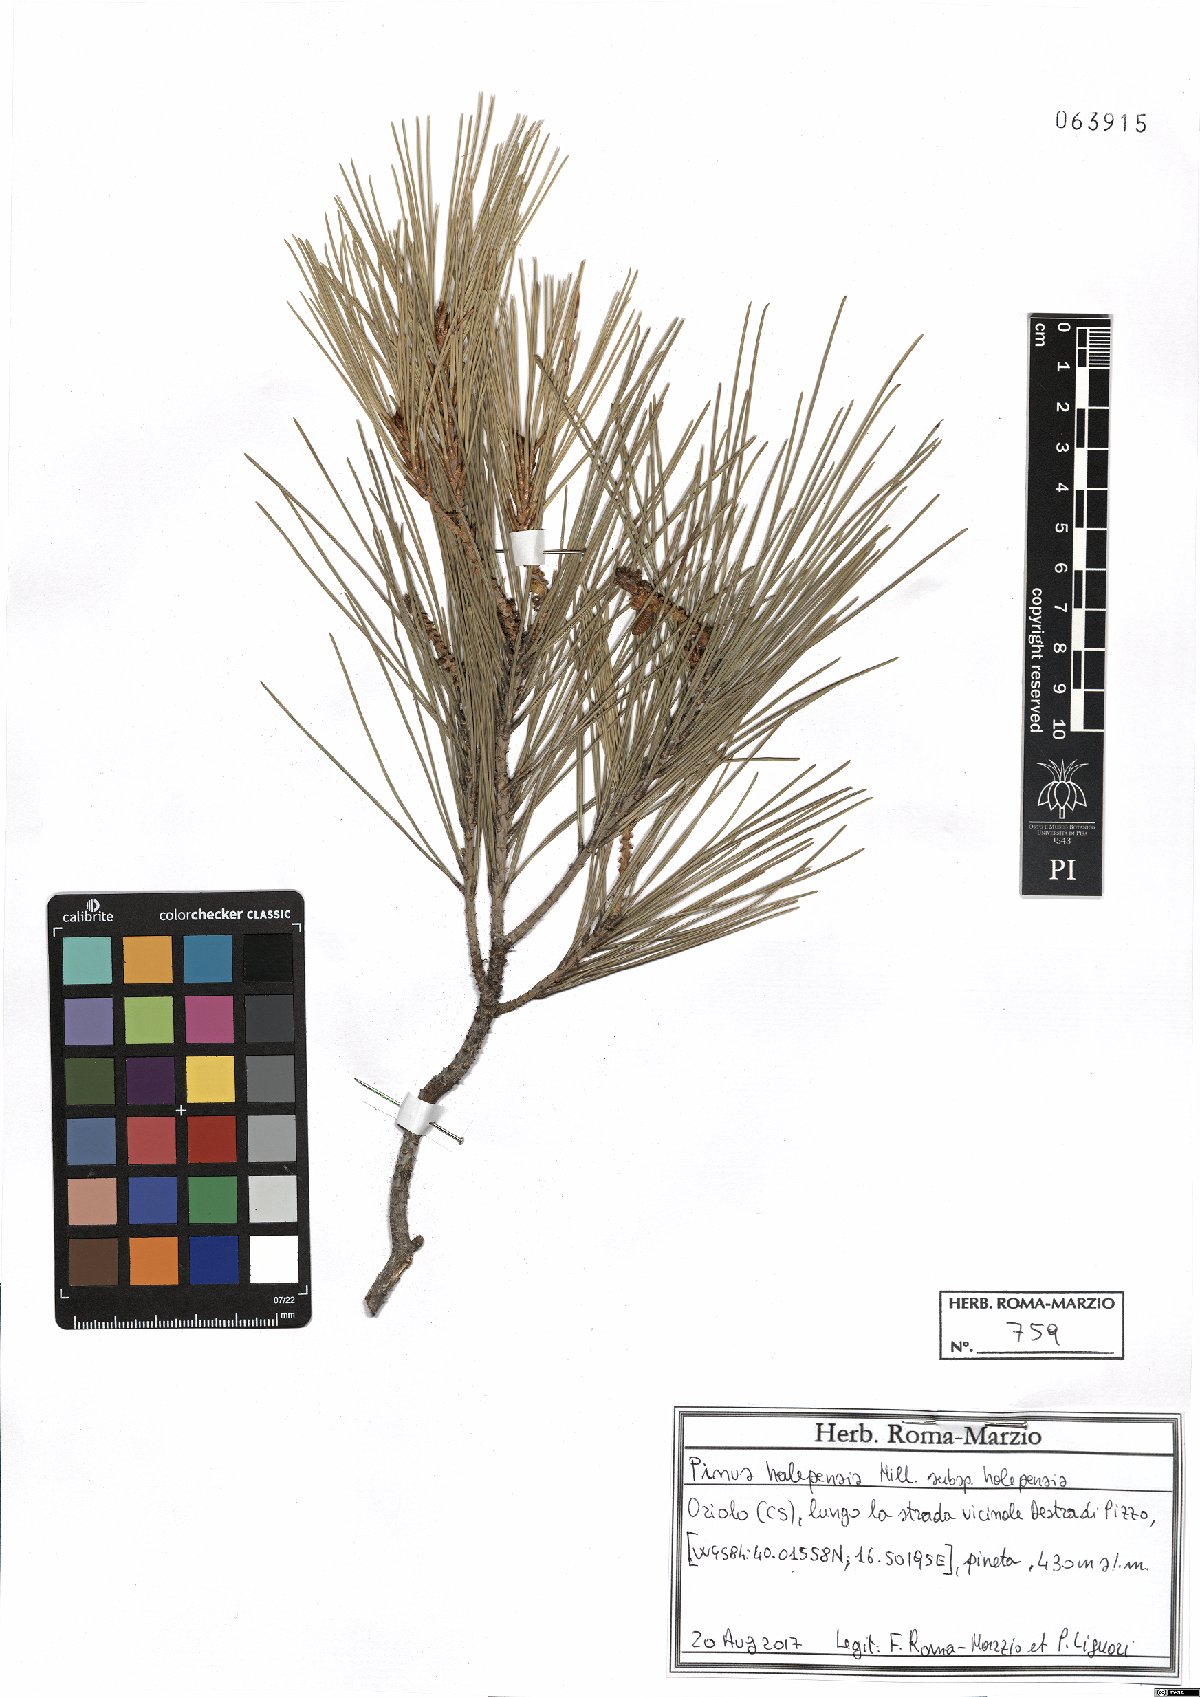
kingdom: Plantae
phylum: Tracheophyta
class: Pinopsida
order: Pinales
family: Pinaceae
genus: Pinus
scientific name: Pinus halepensis
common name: Aleppo pine
